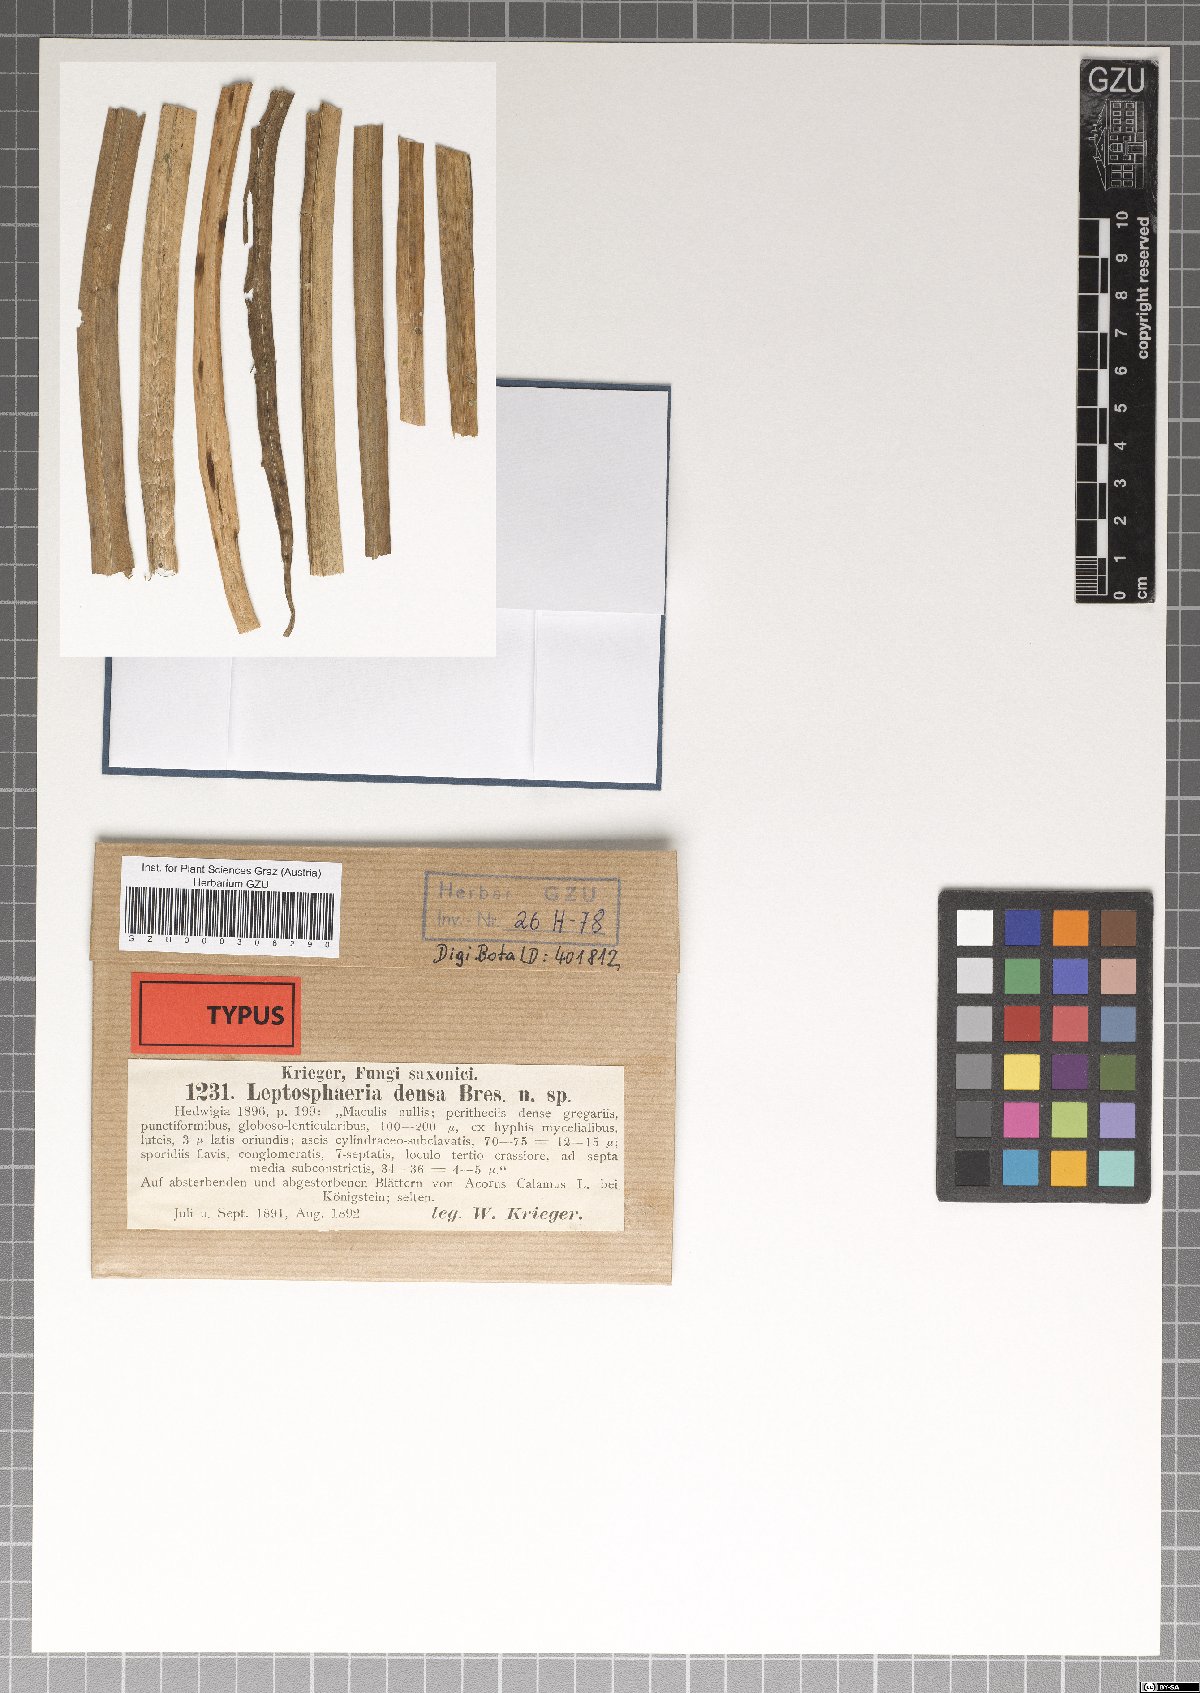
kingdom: Fungi
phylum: Ascomycota
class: Dothideomycetes
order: Pleosporales
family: Leptosphaeriaceae
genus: Leptosphaeria
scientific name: Leptosphaeria densa
